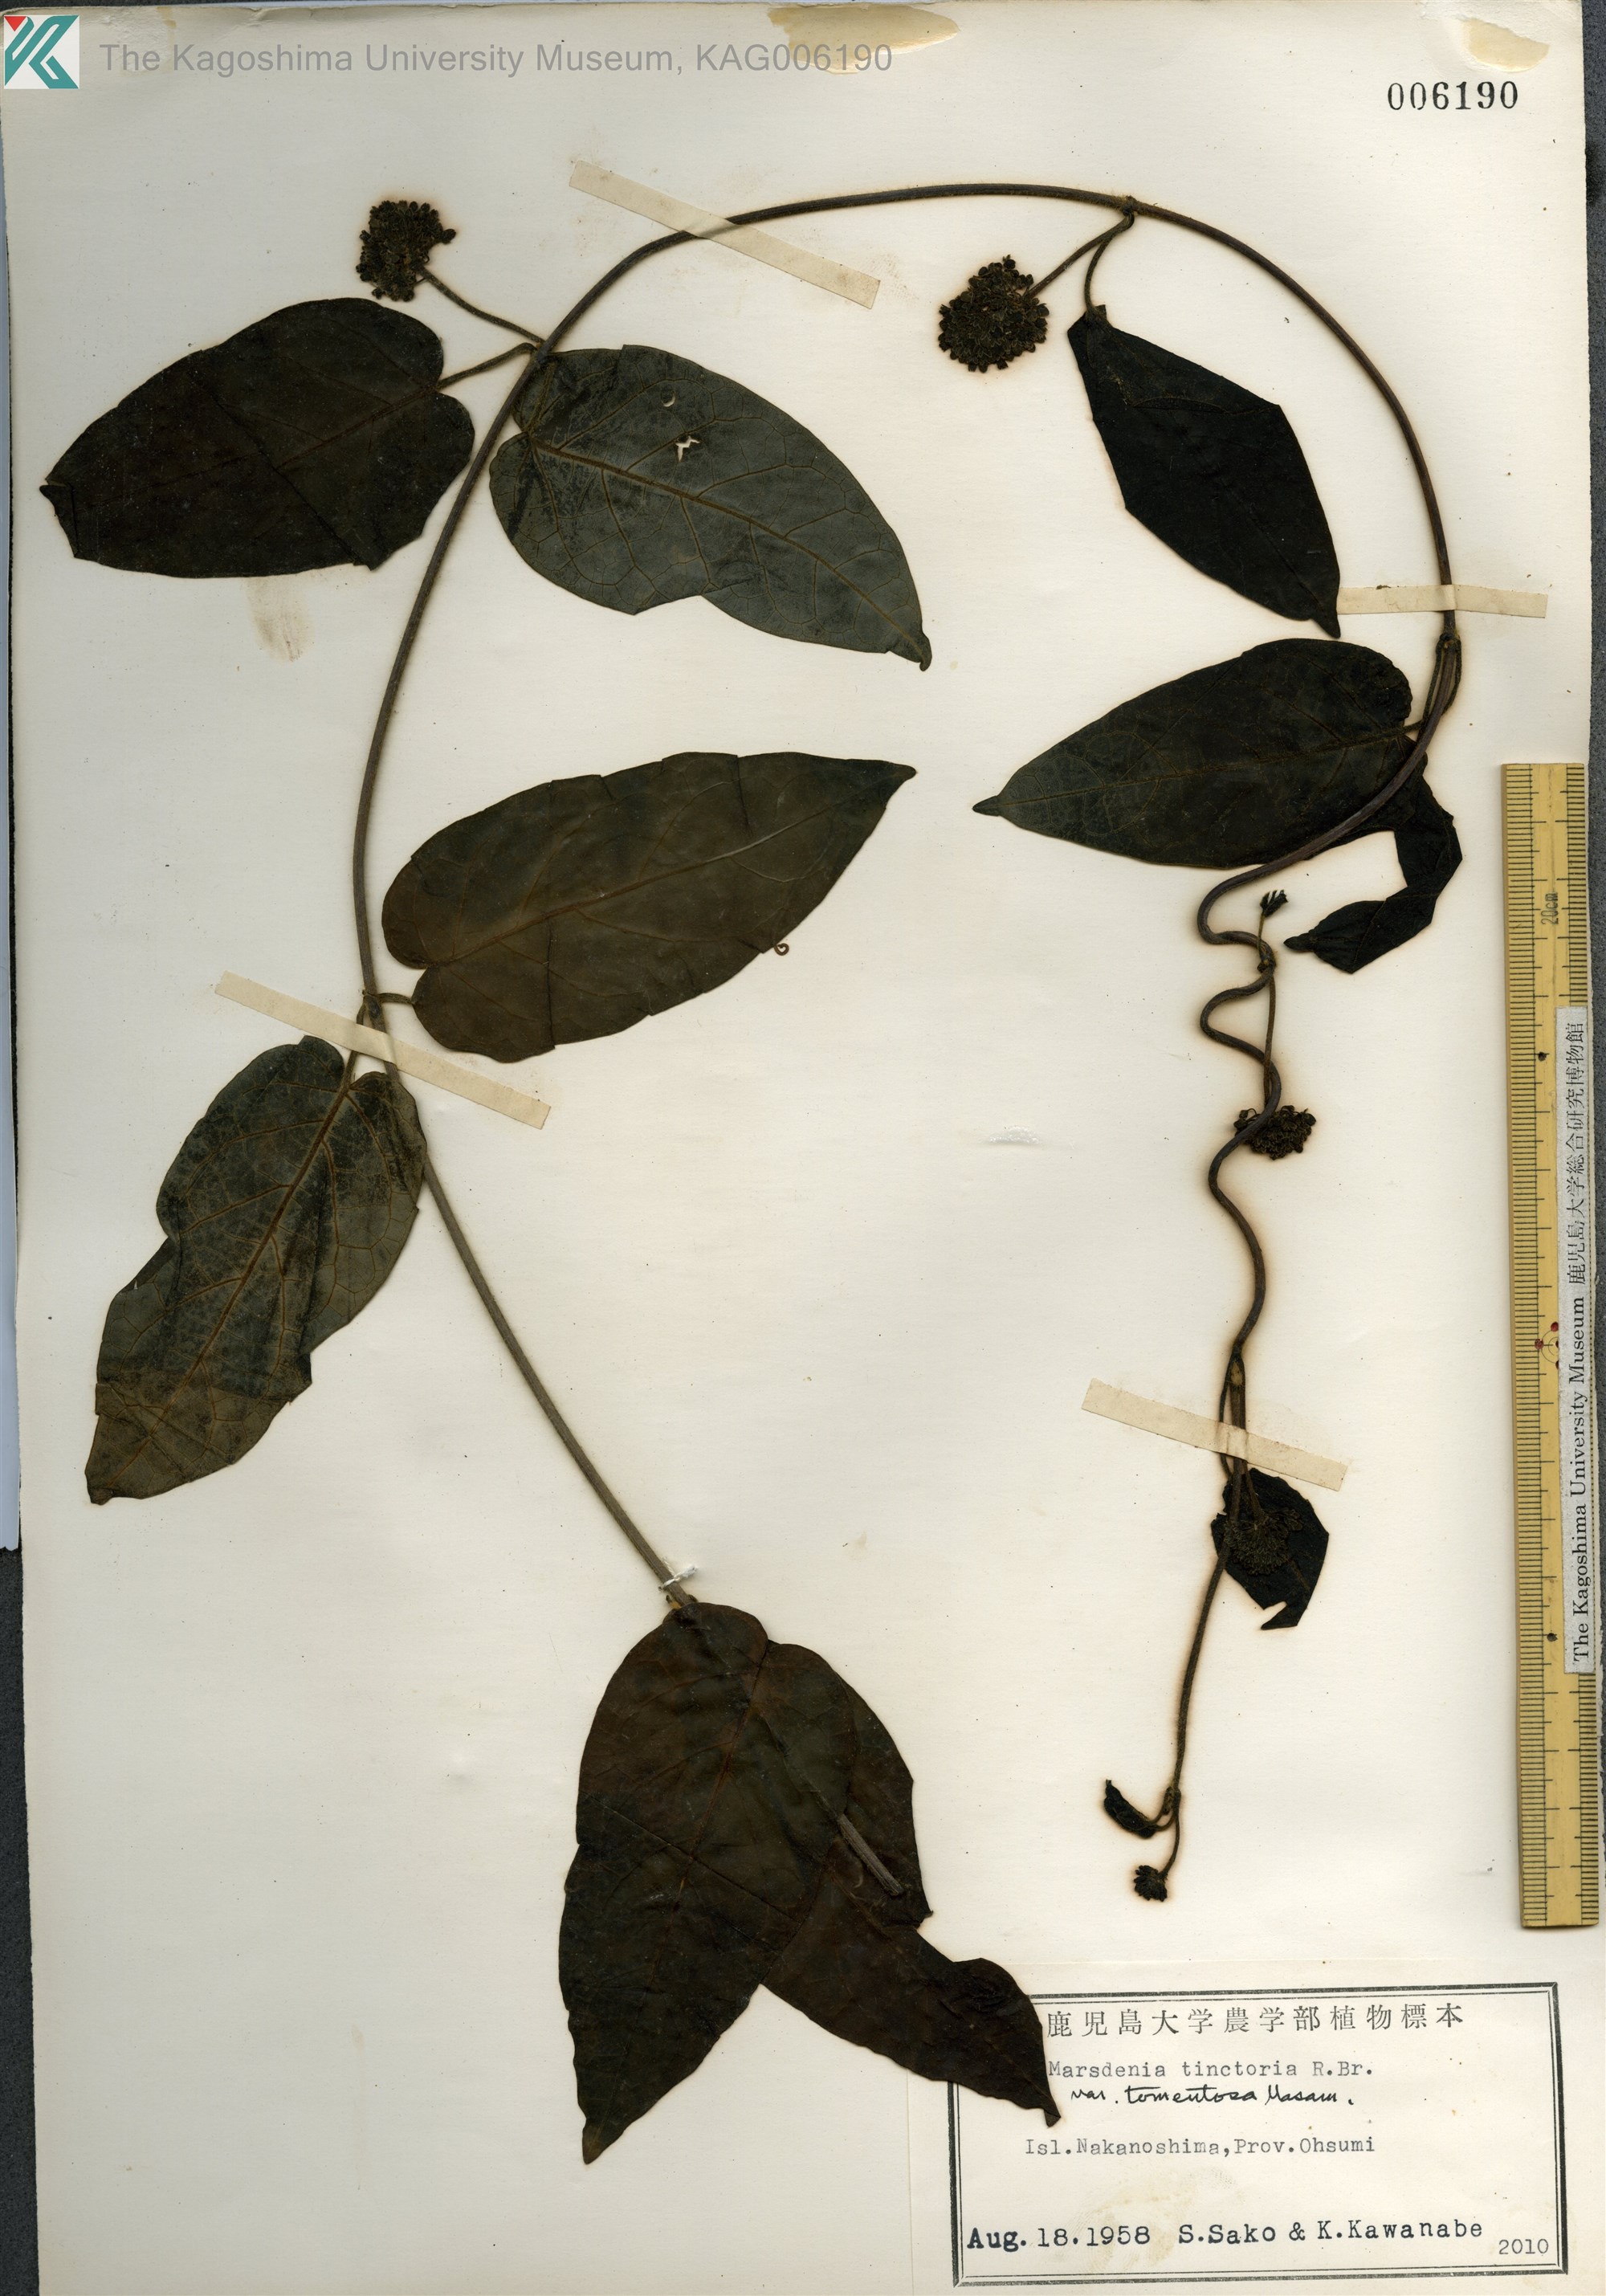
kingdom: Plantae
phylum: Tracheophyta
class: Magnoliopsida
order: Gentianales
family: Apocynaceae
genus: Marsdenia
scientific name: Marsdenia tinctoria
